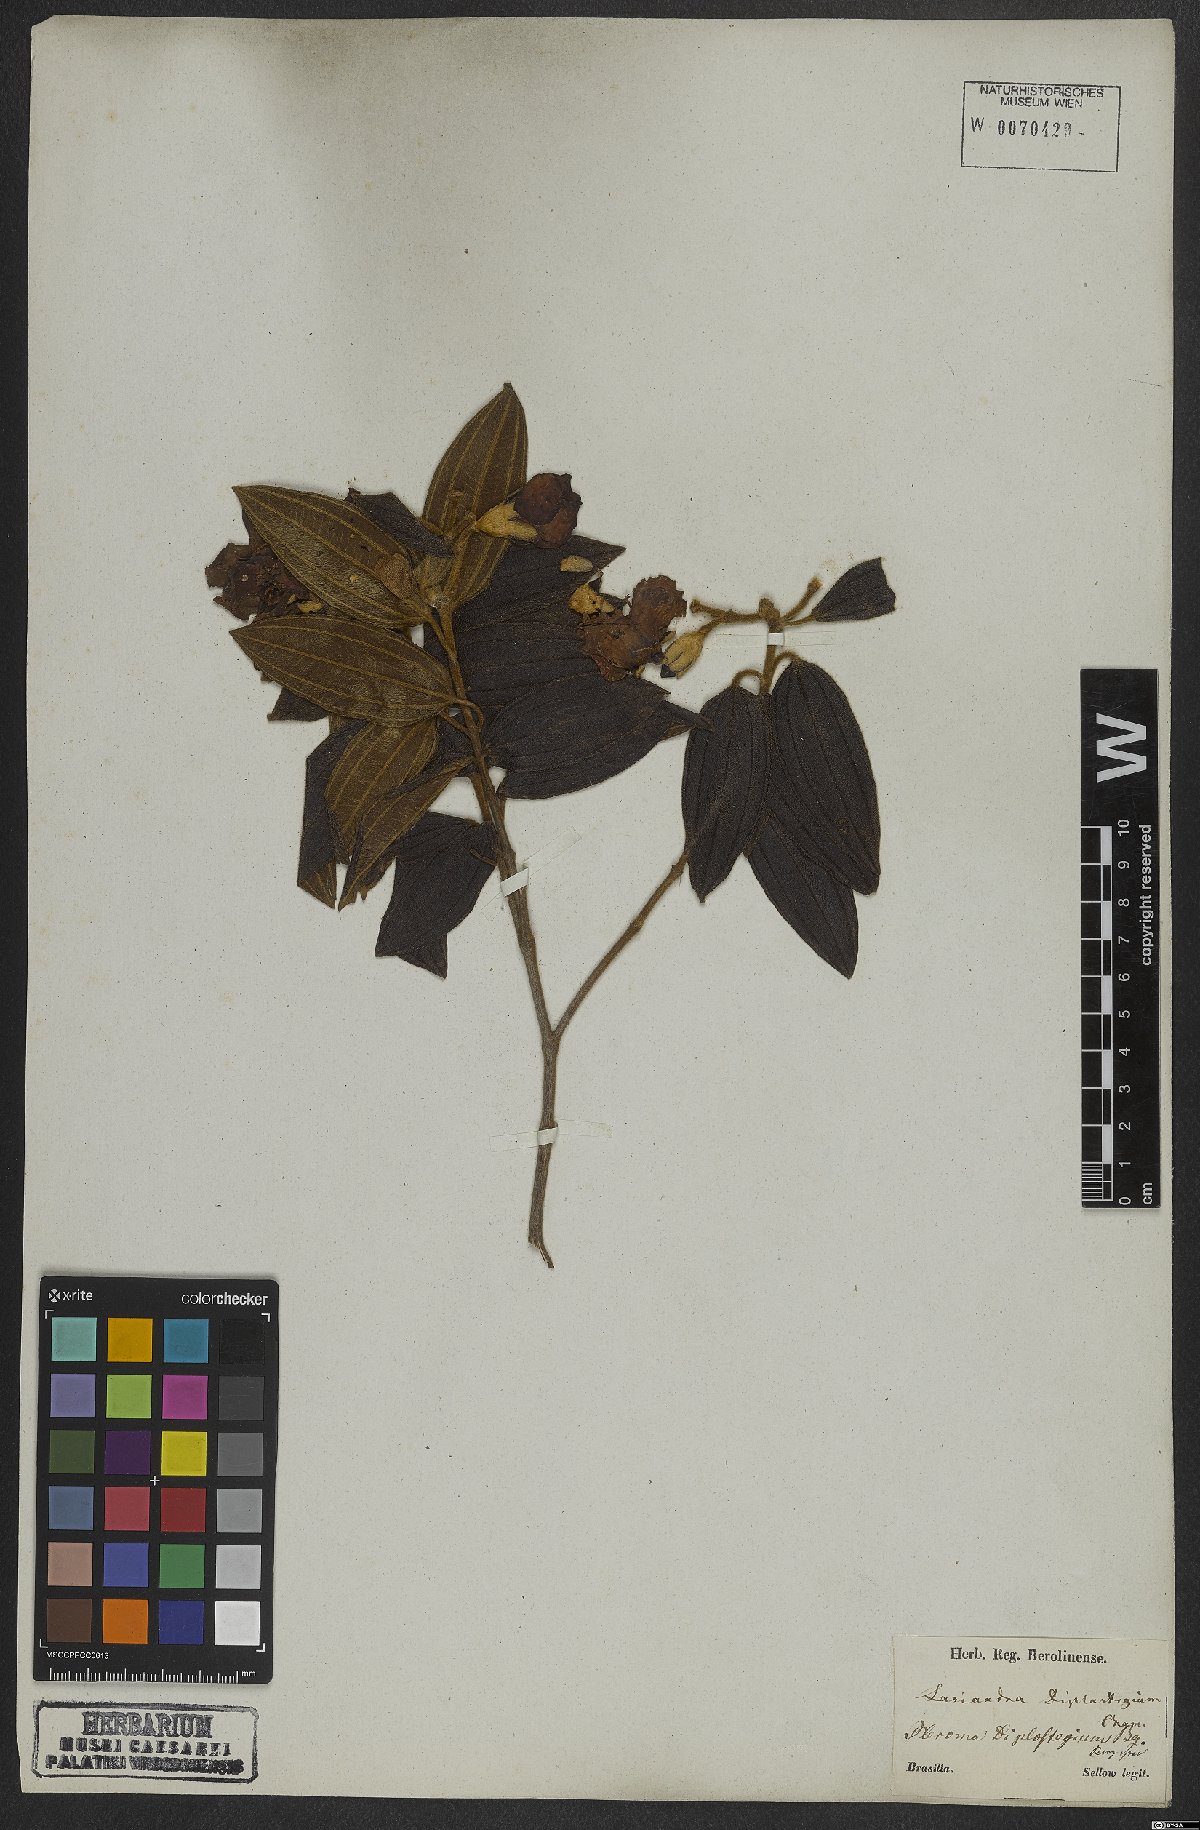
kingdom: Plantae
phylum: Tracheophyta
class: Magnoliopsida
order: Myrtales
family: Melastomataceae
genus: Pleroma
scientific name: Pleroma canescens
